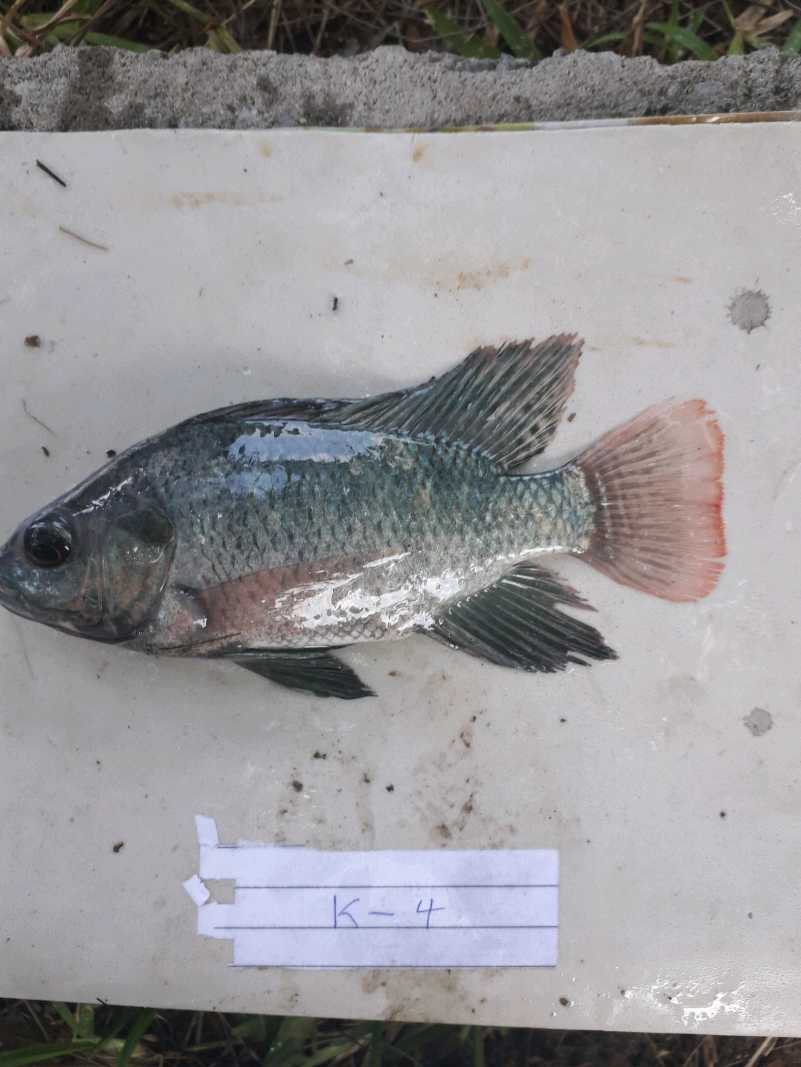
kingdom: Animalia
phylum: Chordata
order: Perciformes
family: Cichlidae
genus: Oreochromis
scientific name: Oreochromis niloticus
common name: Nile tilapia
